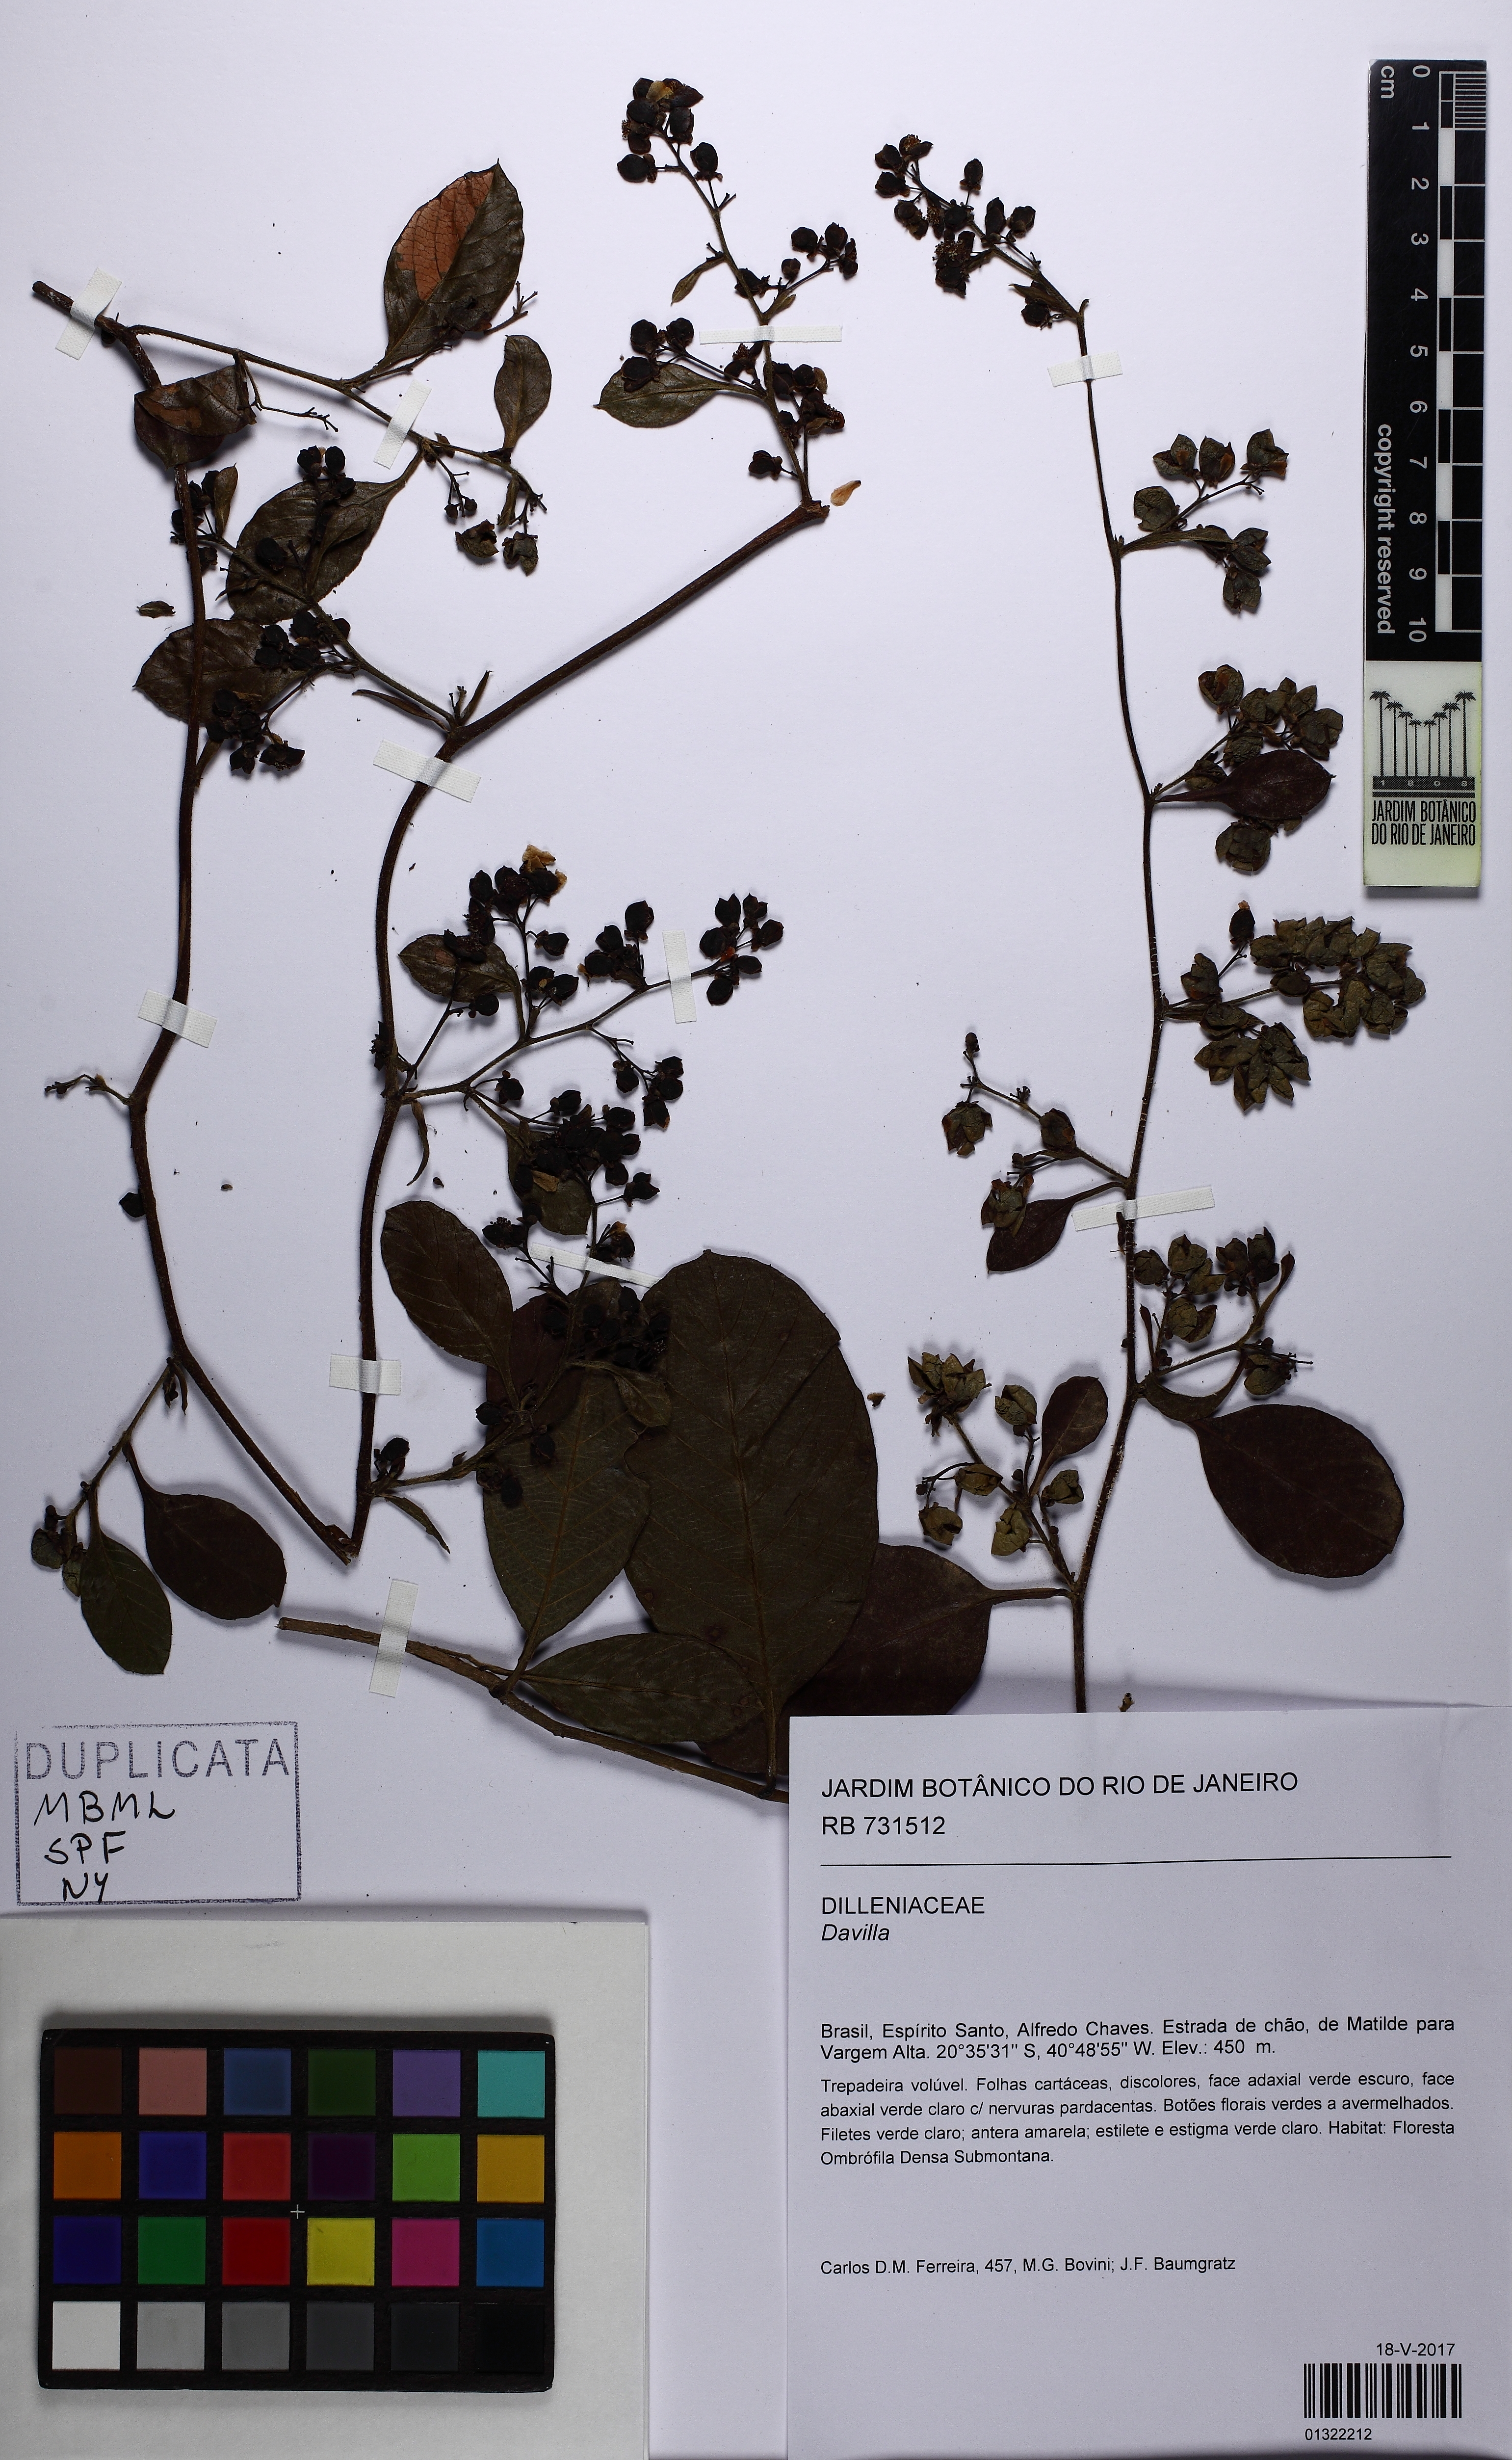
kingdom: Plantae
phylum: Tracheophyta
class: Magnoliopsida
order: Dilleniales
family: Dilleniaceae
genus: Davilla
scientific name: Davilla rugosa
